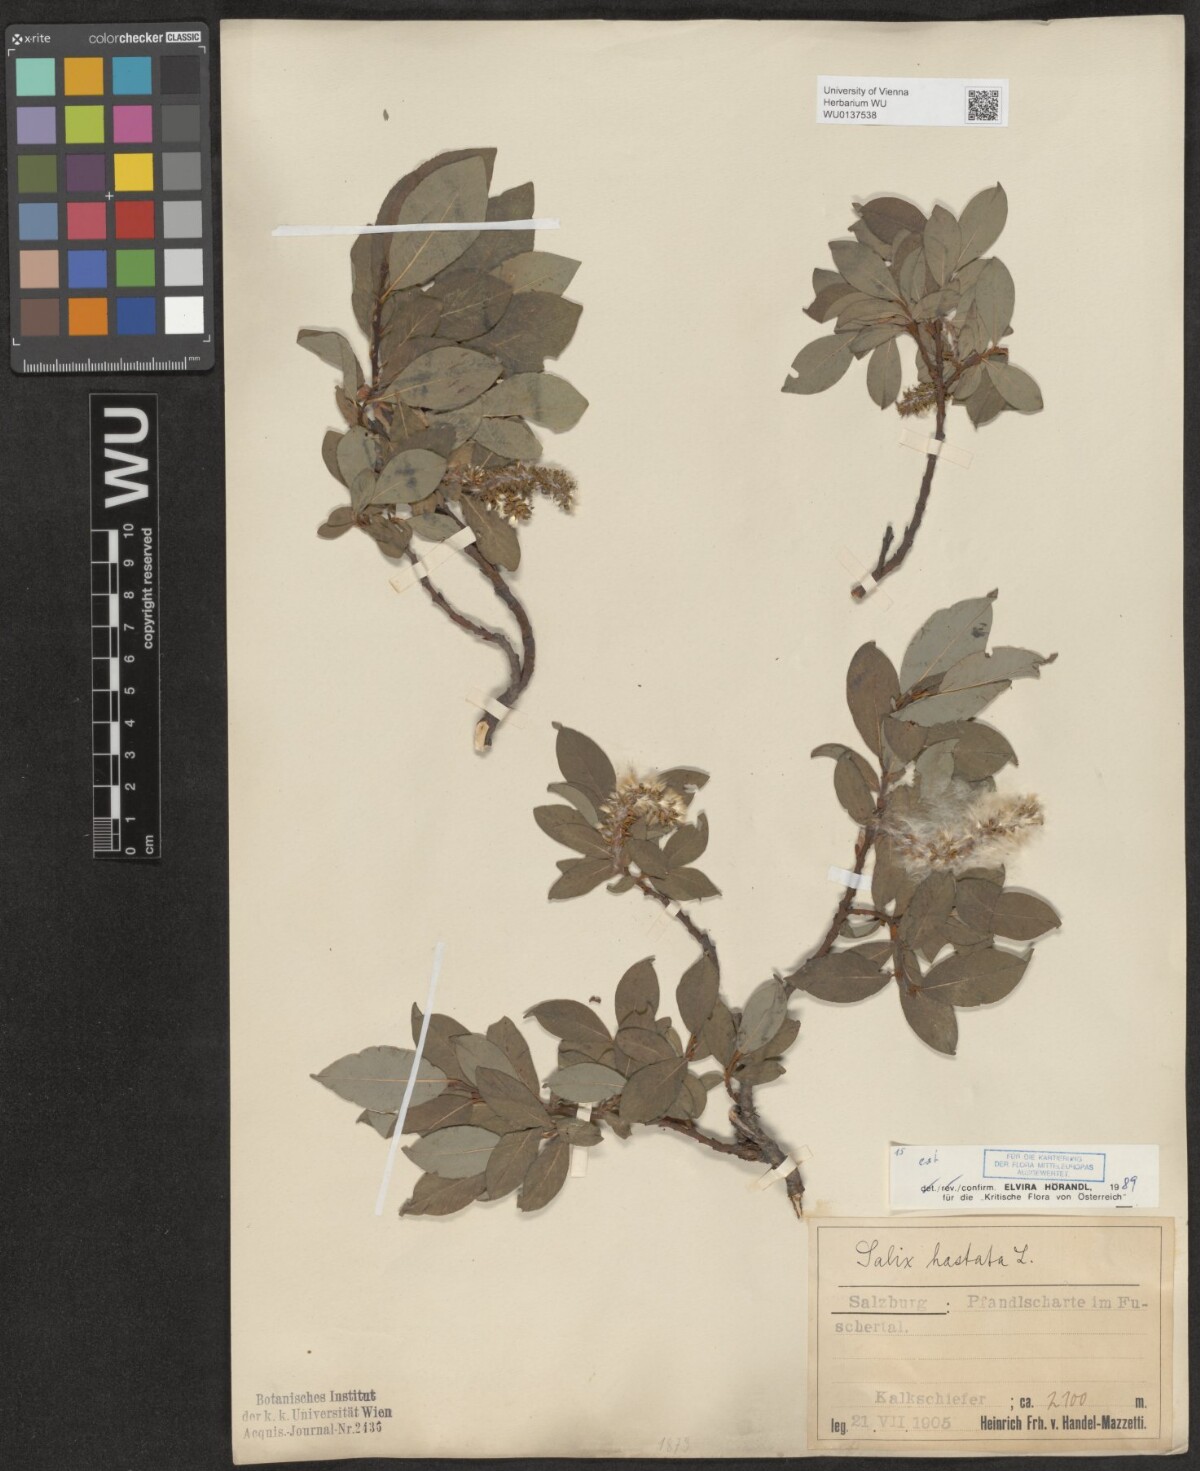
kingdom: Plantae
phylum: Tracheophyta
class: Magnoliopsida
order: Malpighiales
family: Salicaceae
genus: Salix
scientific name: Salix hastata
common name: Halberd willow
